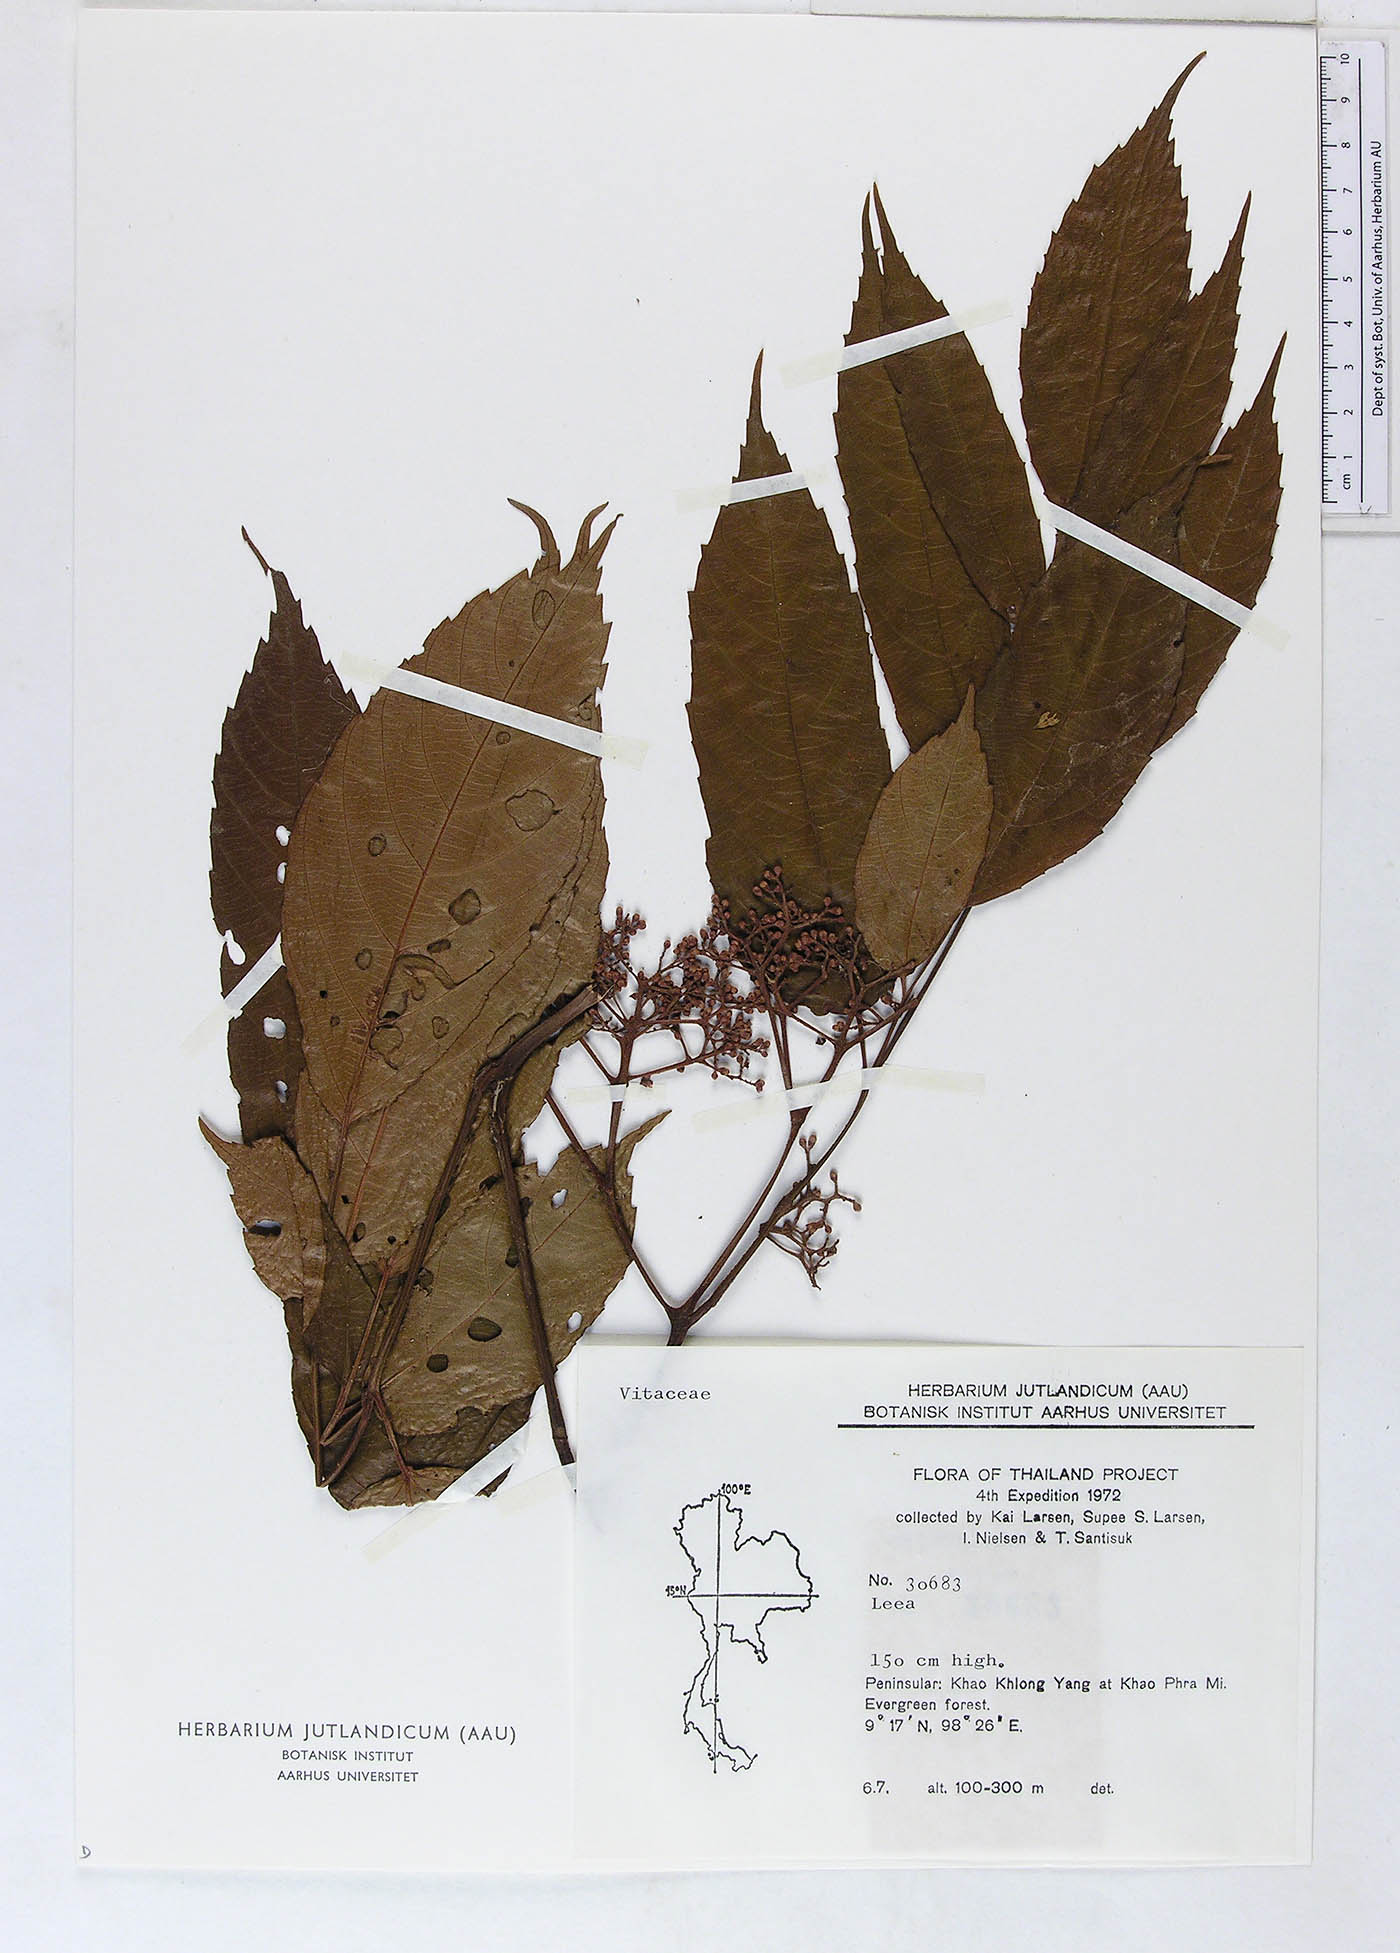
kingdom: Plantae
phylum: Tracheophyta
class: Magnoliopsida
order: Vitales
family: Vitaceae
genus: Leea
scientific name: Leea indica
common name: Bandicoot-berry
